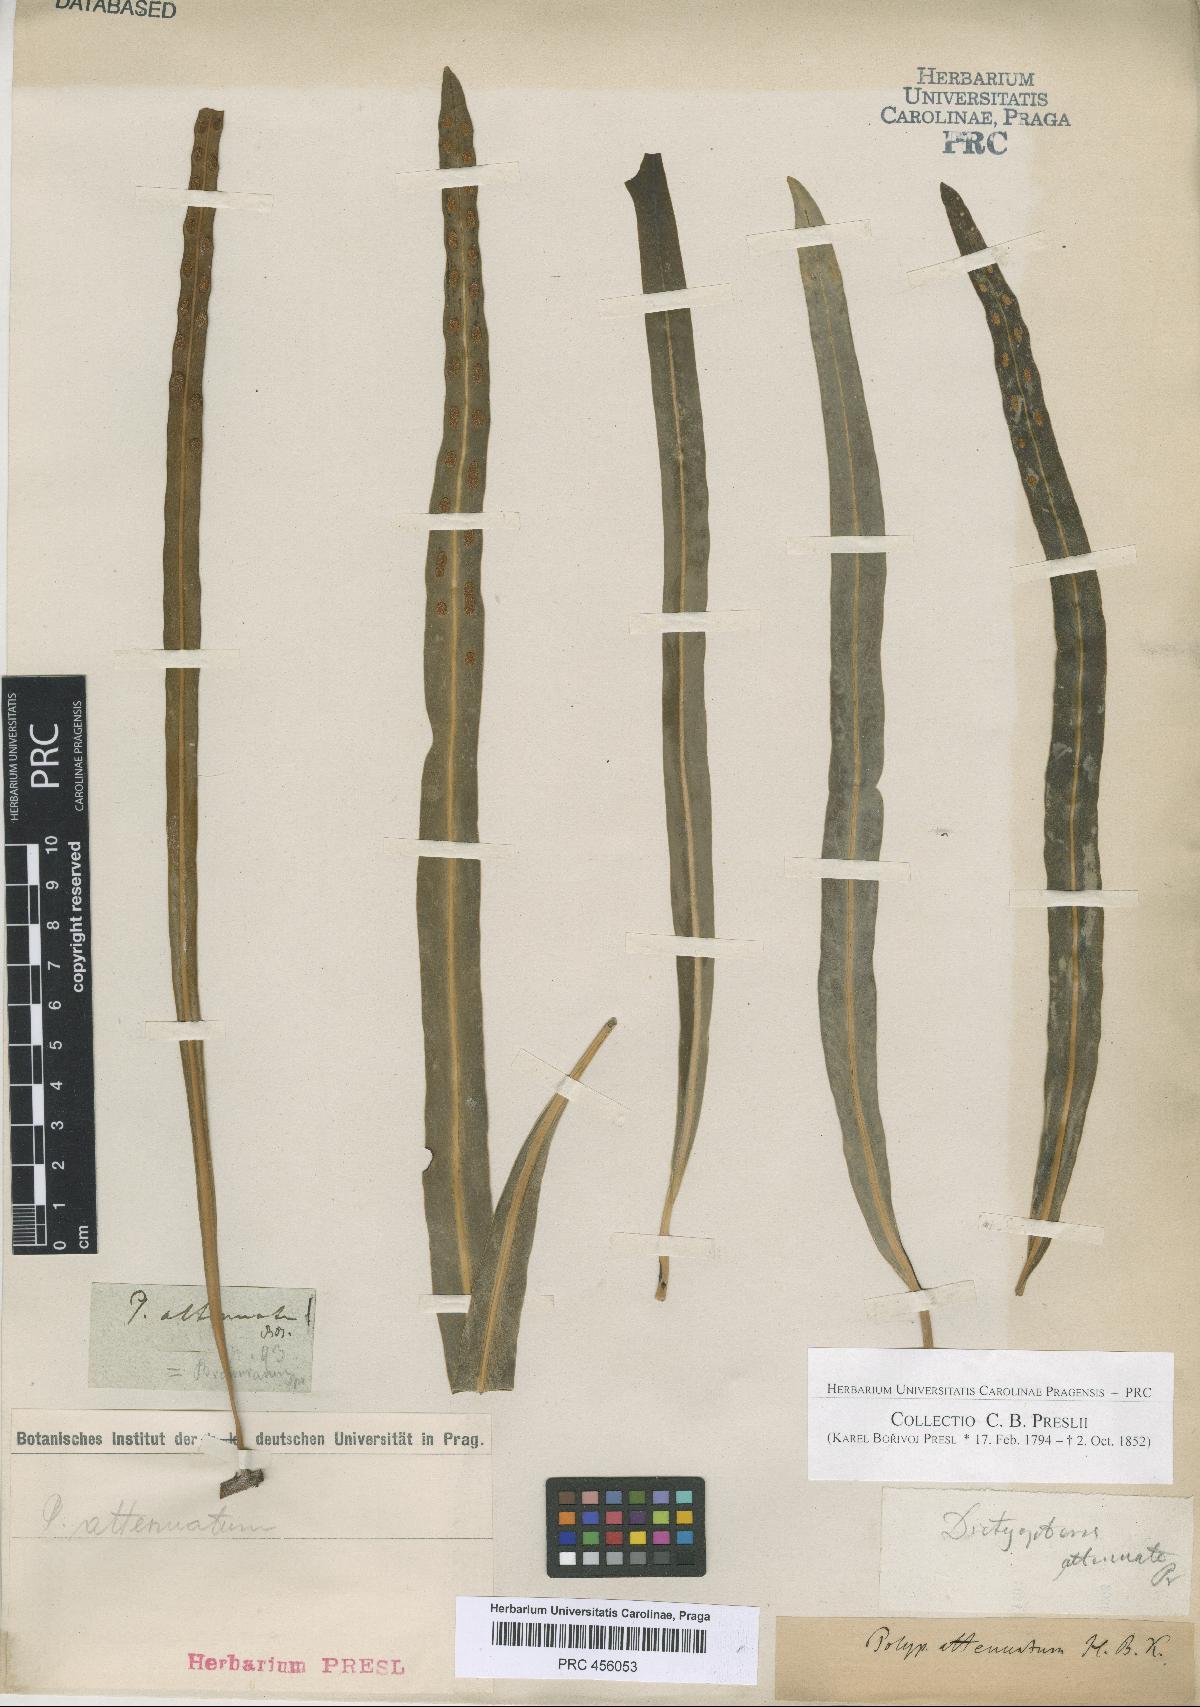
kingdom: Plantae
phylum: Tracheophyta
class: Polypodiopsida
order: Polypodiales
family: Polypodiaceae
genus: Serpocaulon
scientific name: Serpocaulon attenuatum
